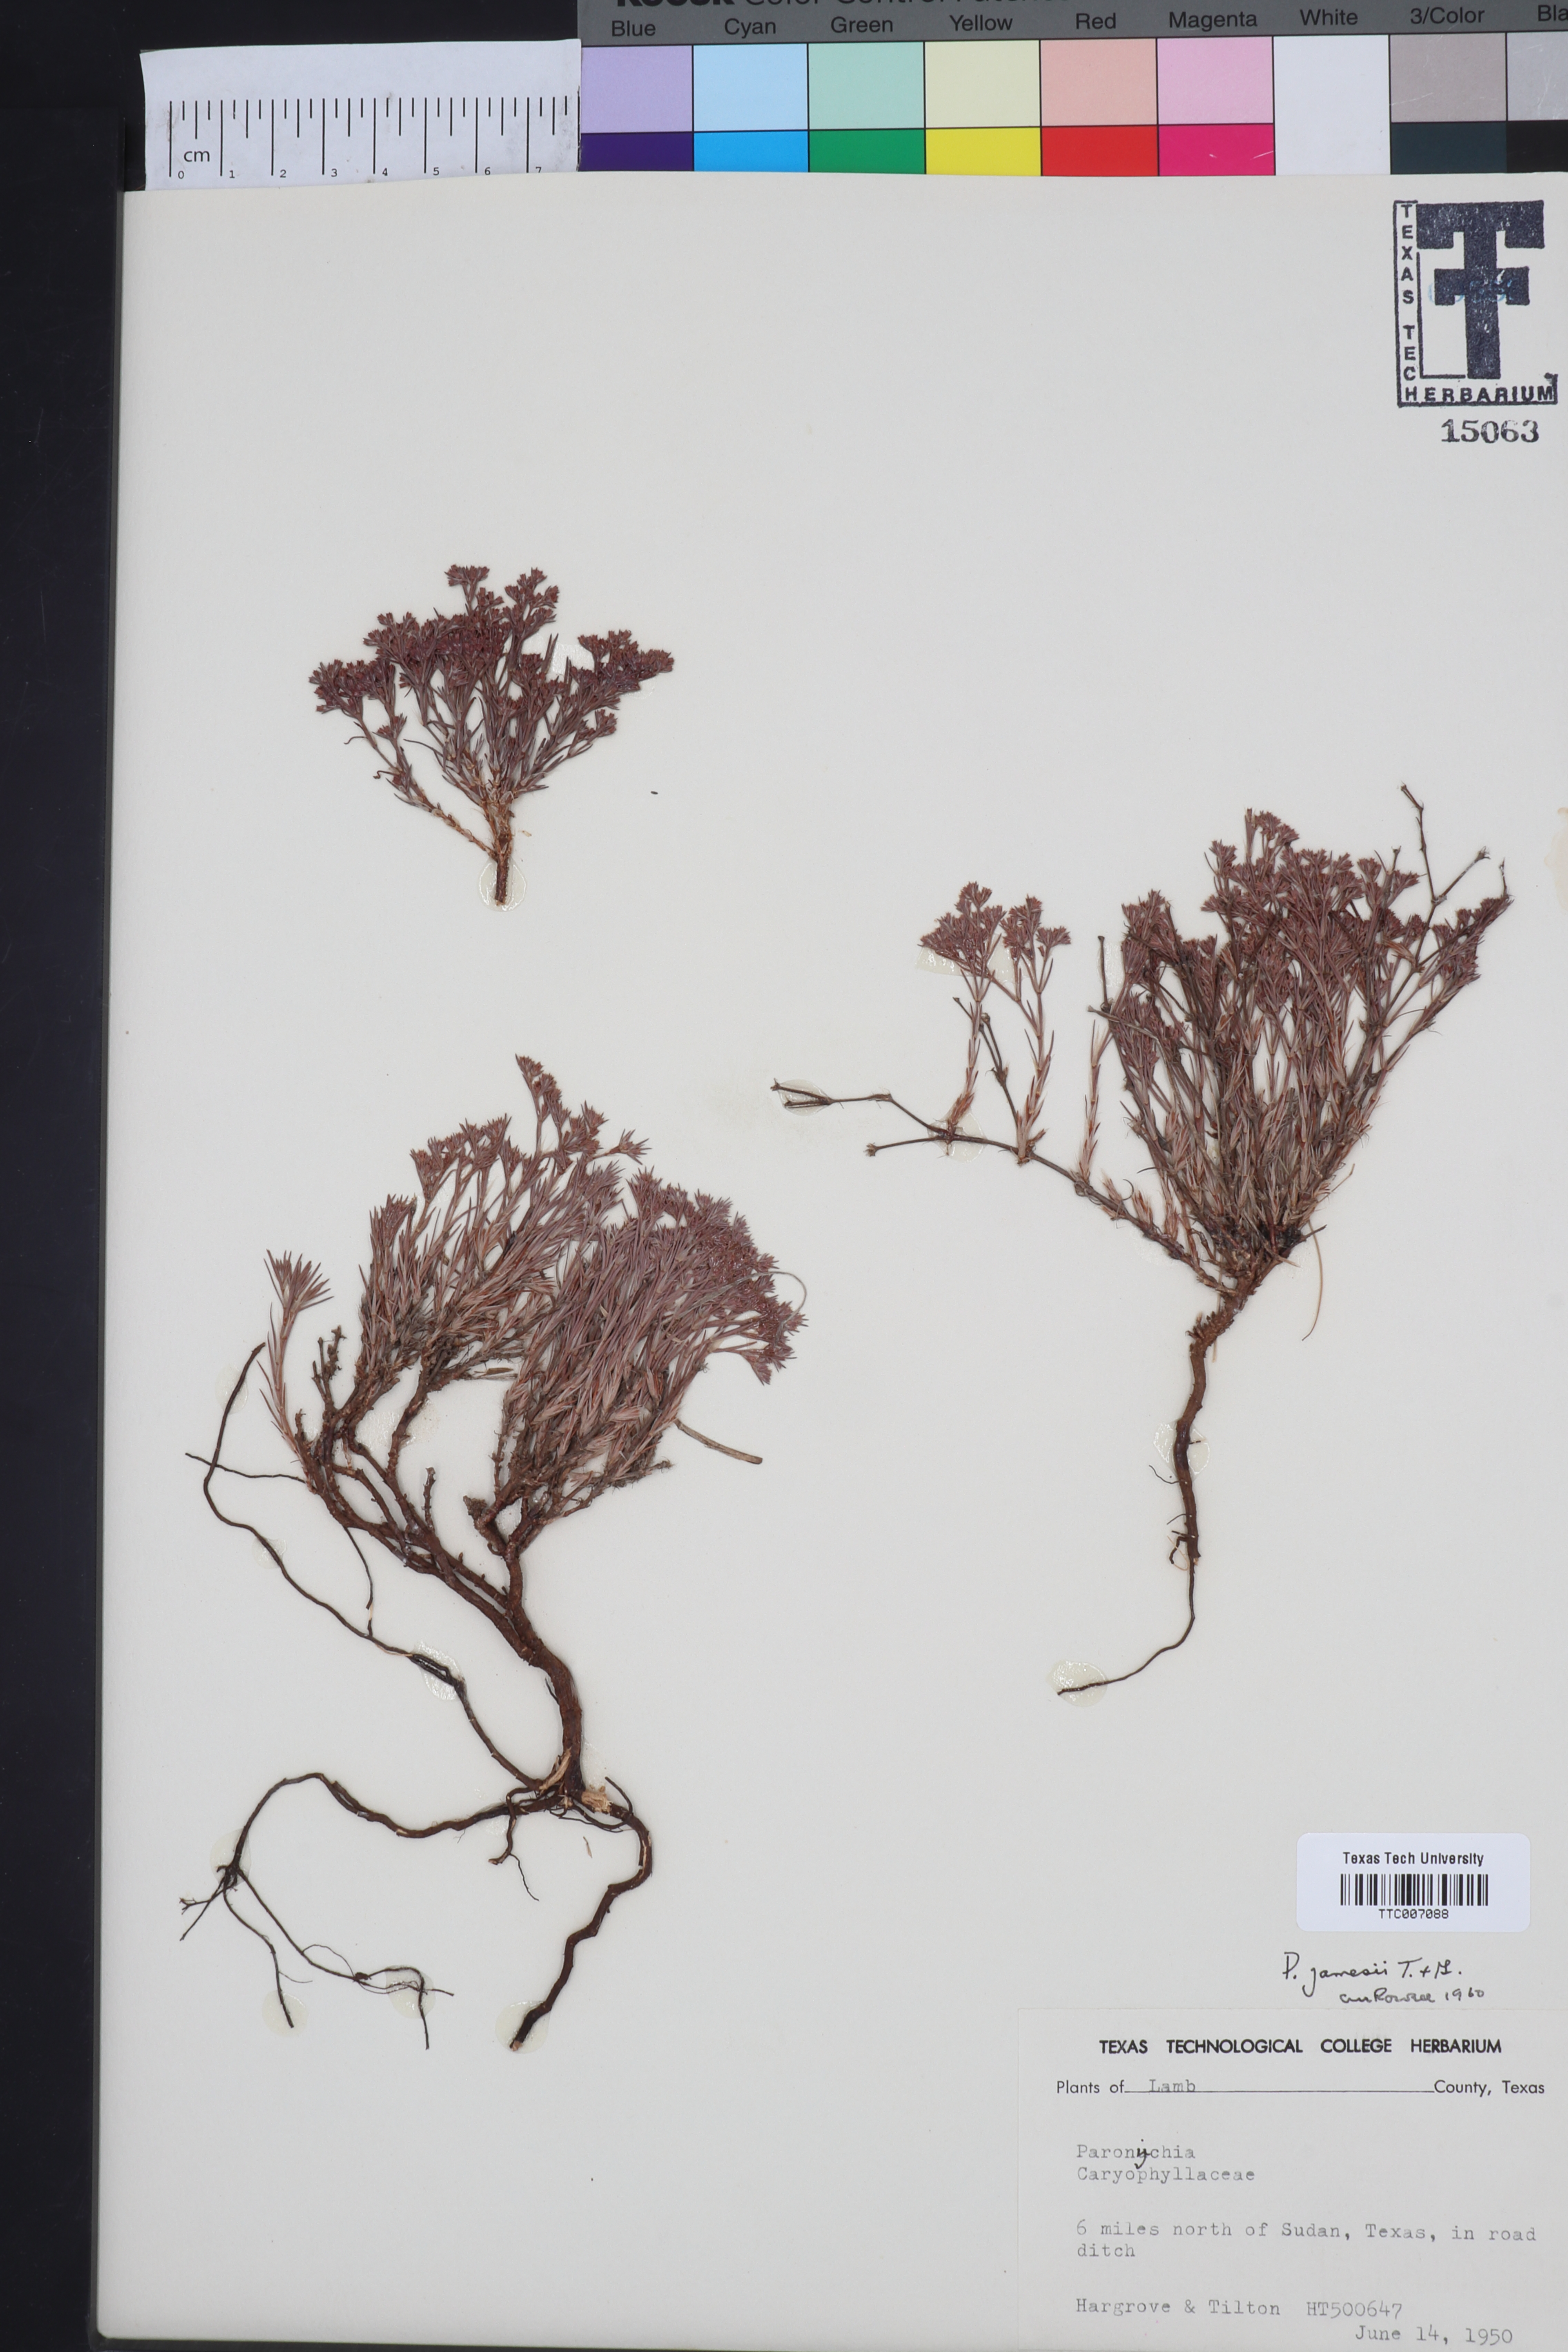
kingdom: Plantae
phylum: Tracheophyta
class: Magnoliopsida
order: Caryophyllales
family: Caryophyllaceae
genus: Paronychia
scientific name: Paronychia jamesii
